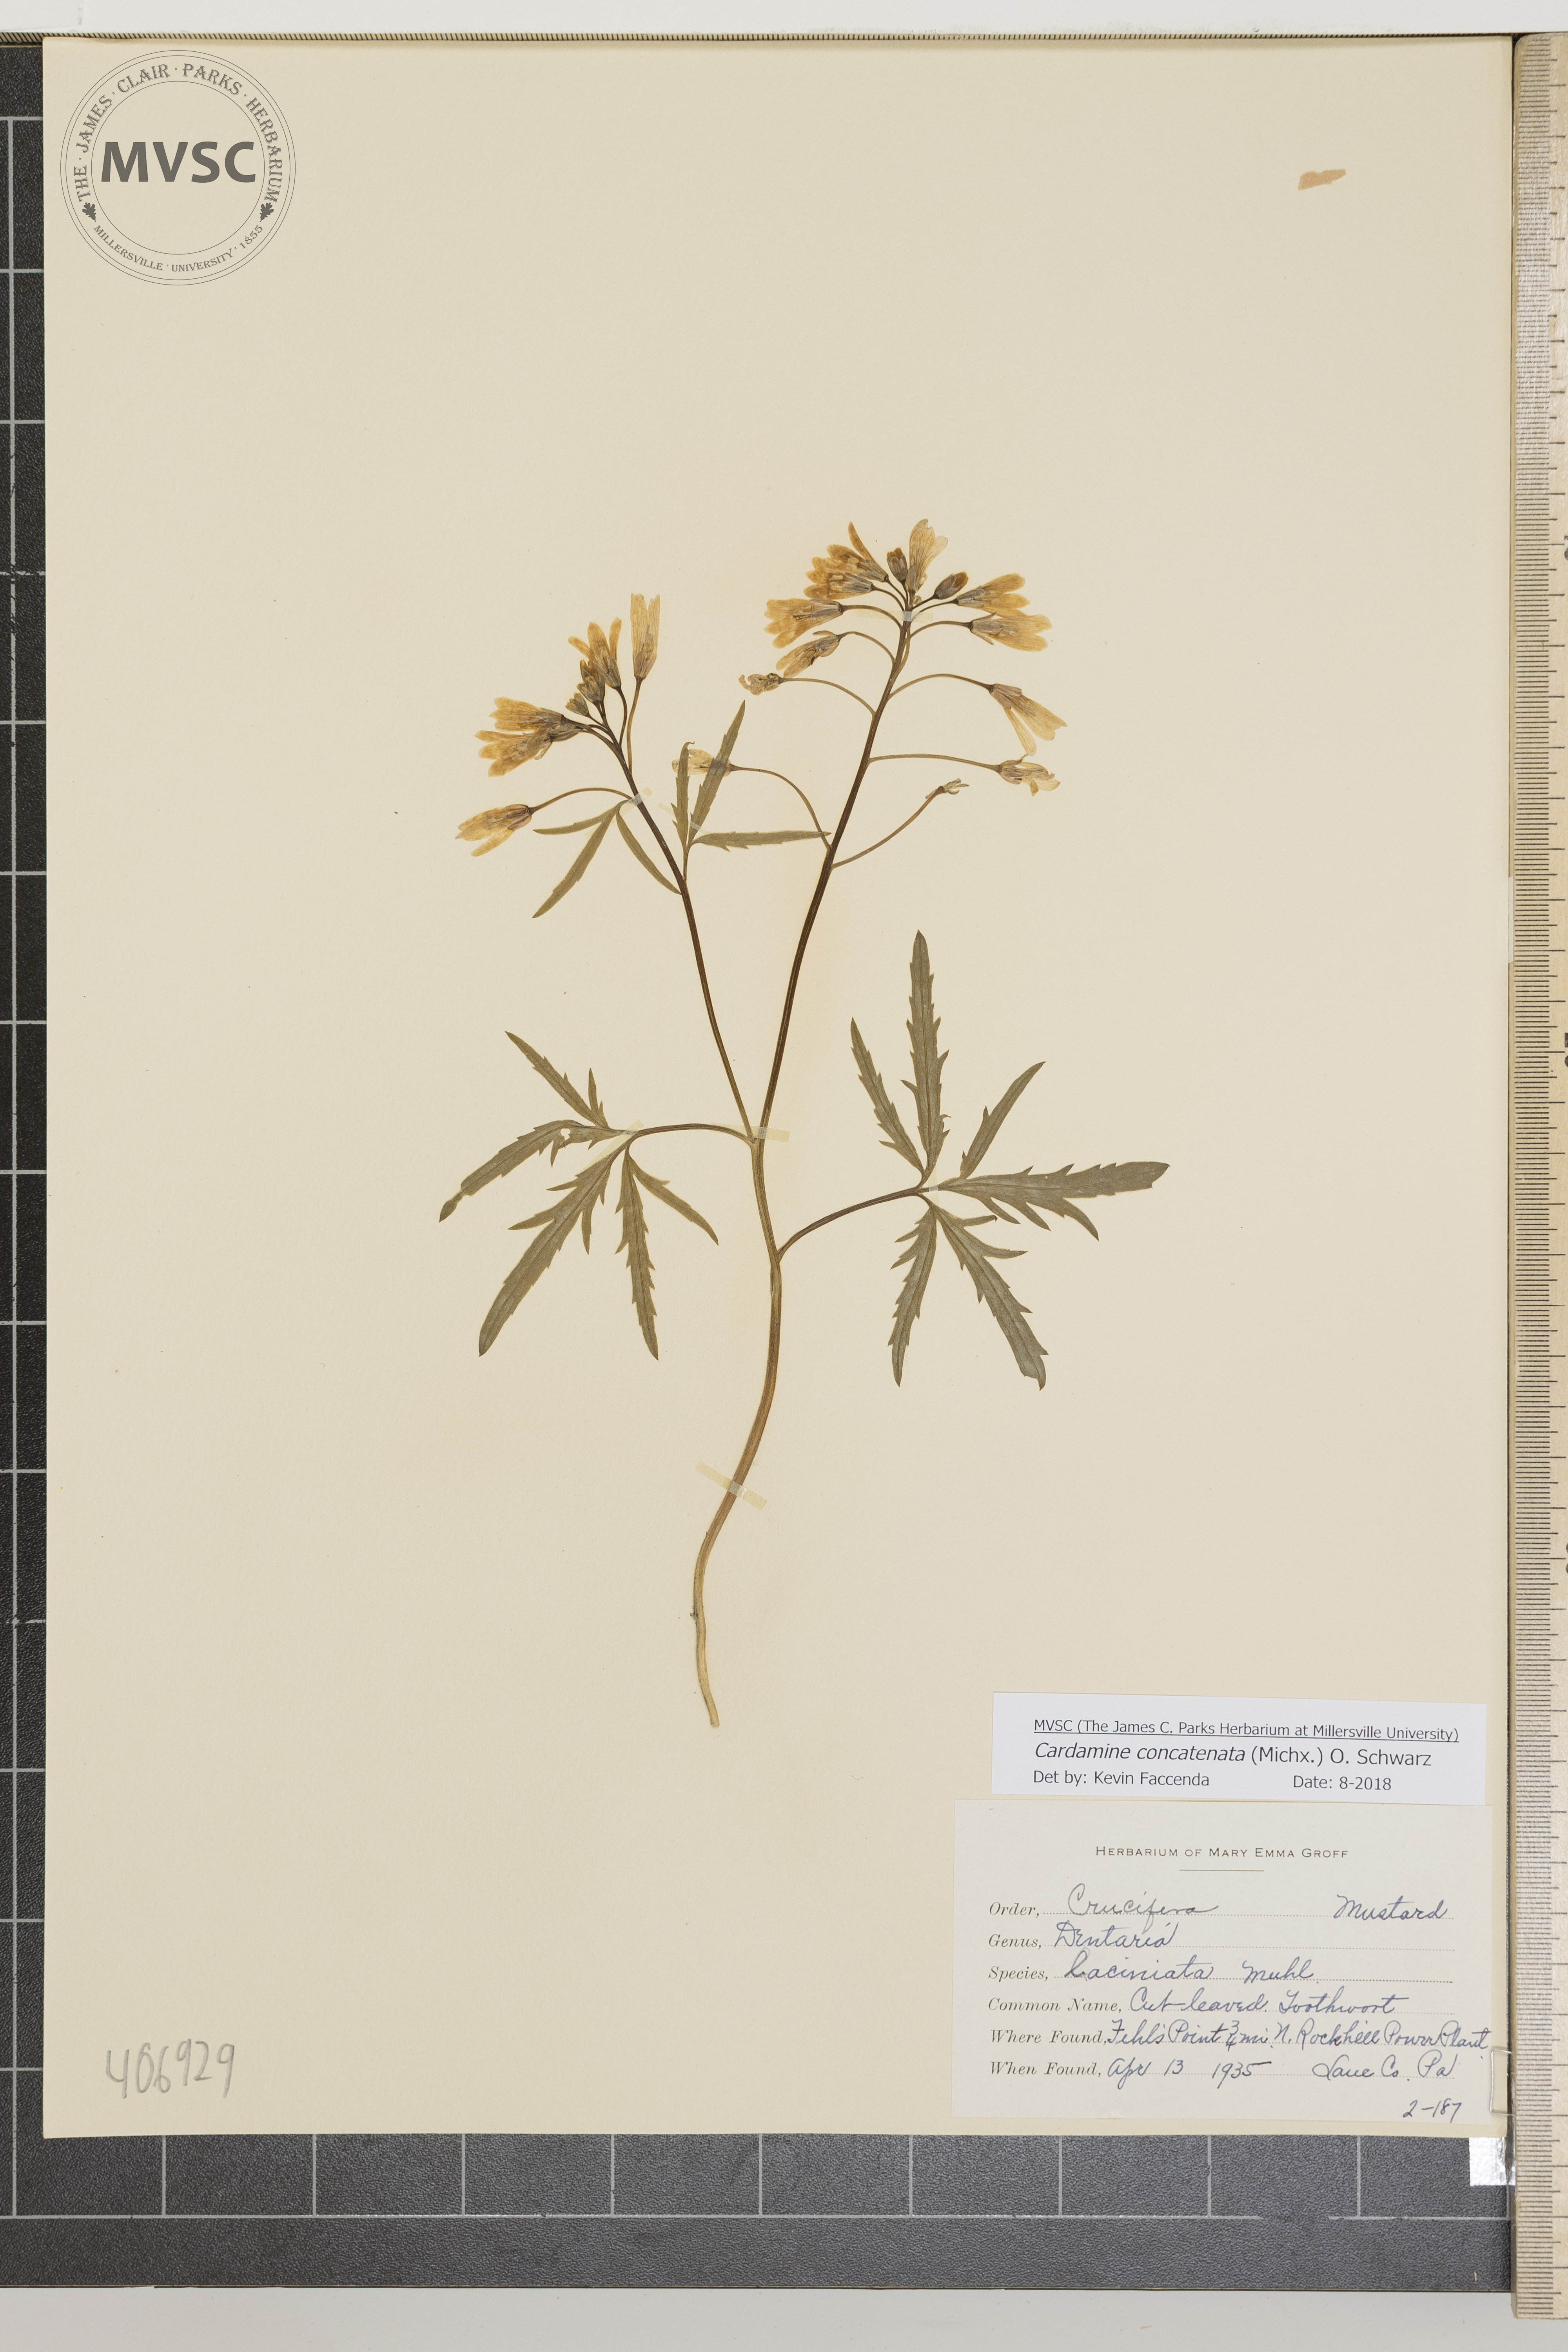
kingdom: Plantae
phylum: Tracheophyta
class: Magnoliopsida
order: Brassicales
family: Brassicaceae
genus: Cardamine
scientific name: Cardamine concatenata
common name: Cut-leaved Toothwort
